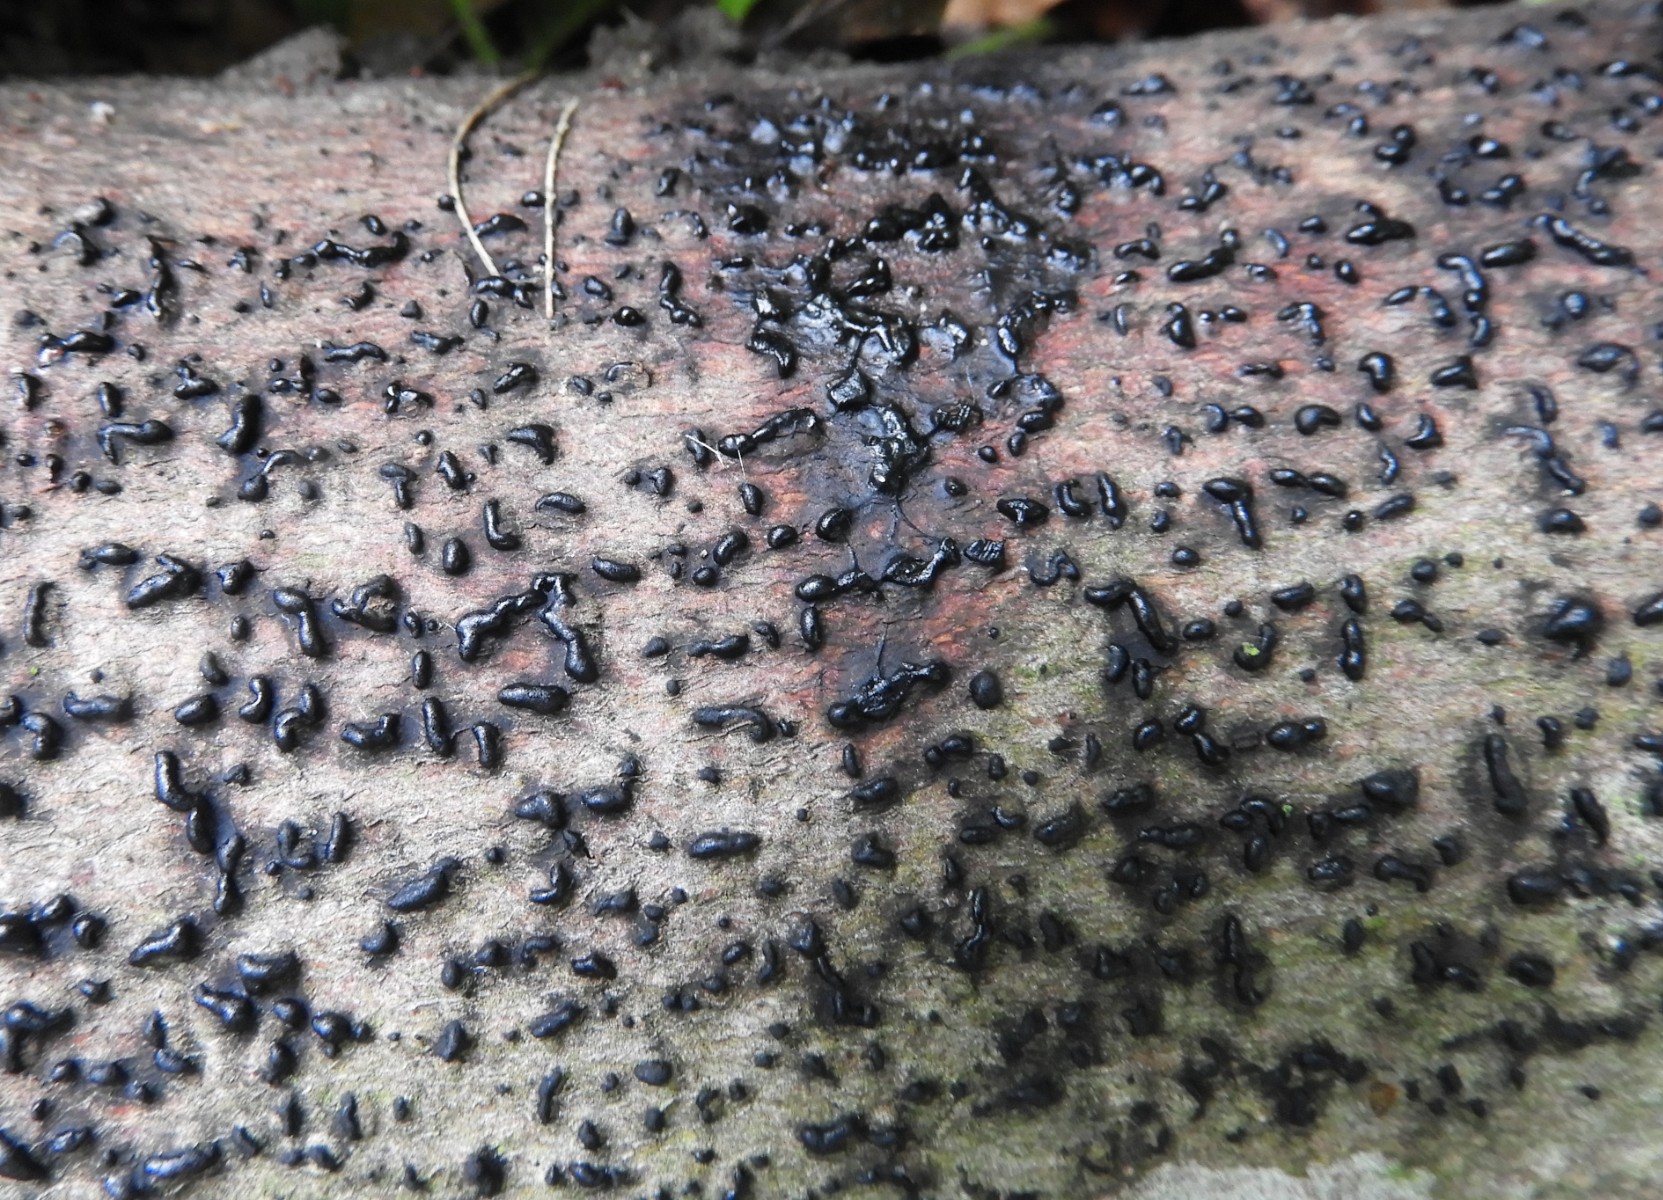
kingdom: Fungi
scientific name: Fungi
